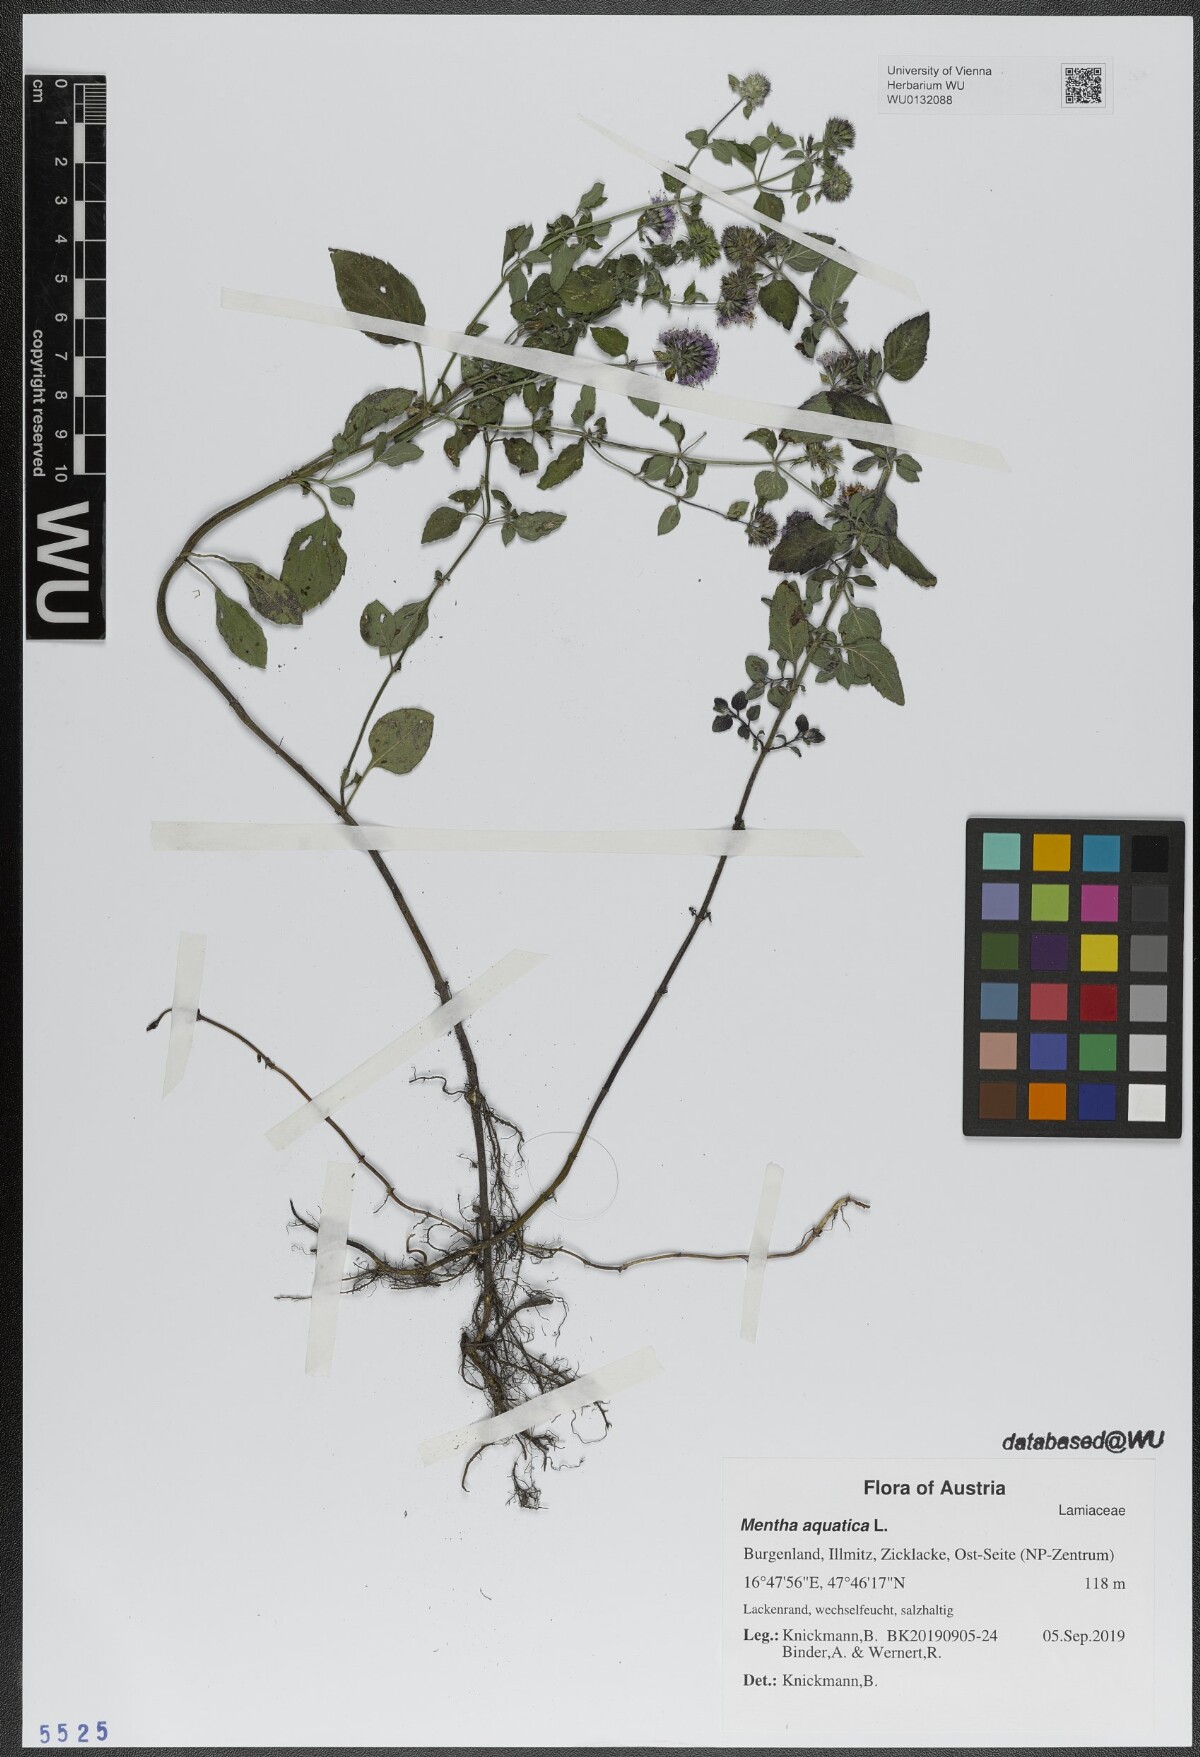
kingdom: Plantae
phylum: Tracheophyta
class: Magnoliopsida
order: Lamiales
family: Lamiaceae
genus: Mentha
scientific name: Mentha aquatica
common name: Water mint
